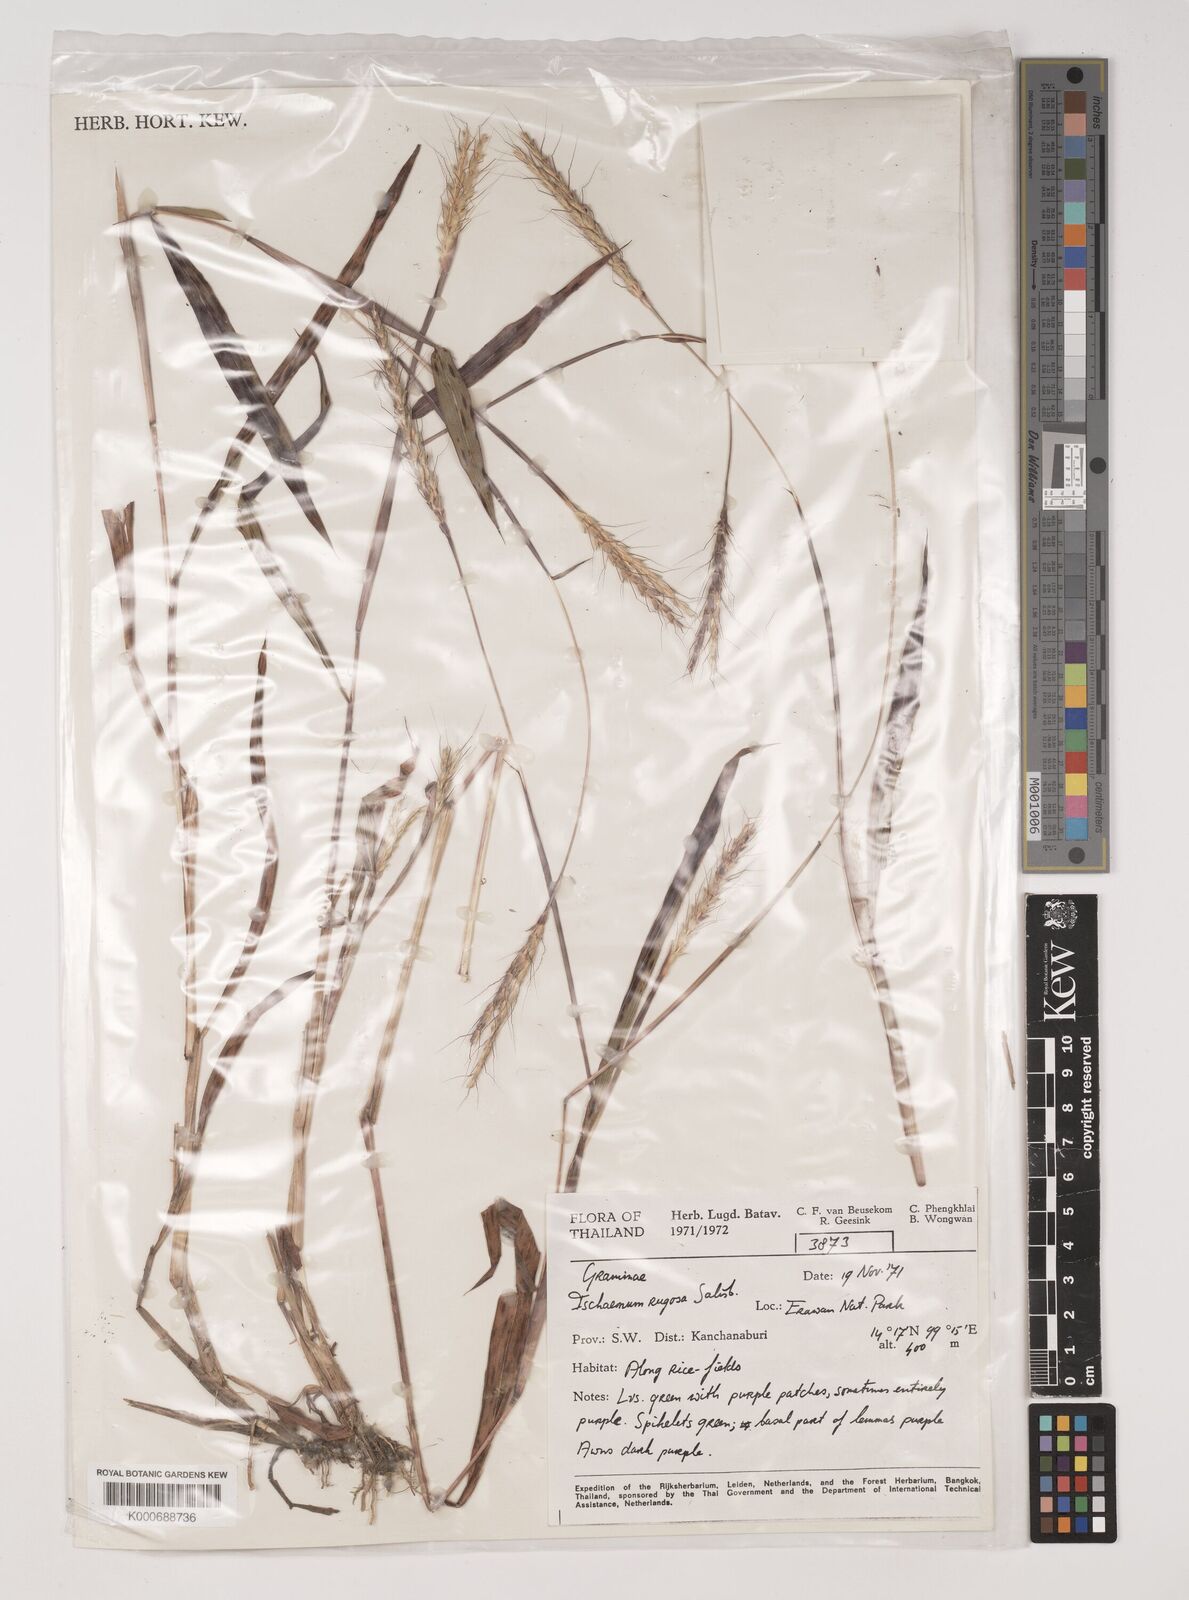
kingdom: Plantae
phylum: Tracheophyta
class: Liliopsida
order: Poales
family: Poaceae
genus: Ischaemum
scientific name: Ischaemum rugosum
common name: Saramatta grass
